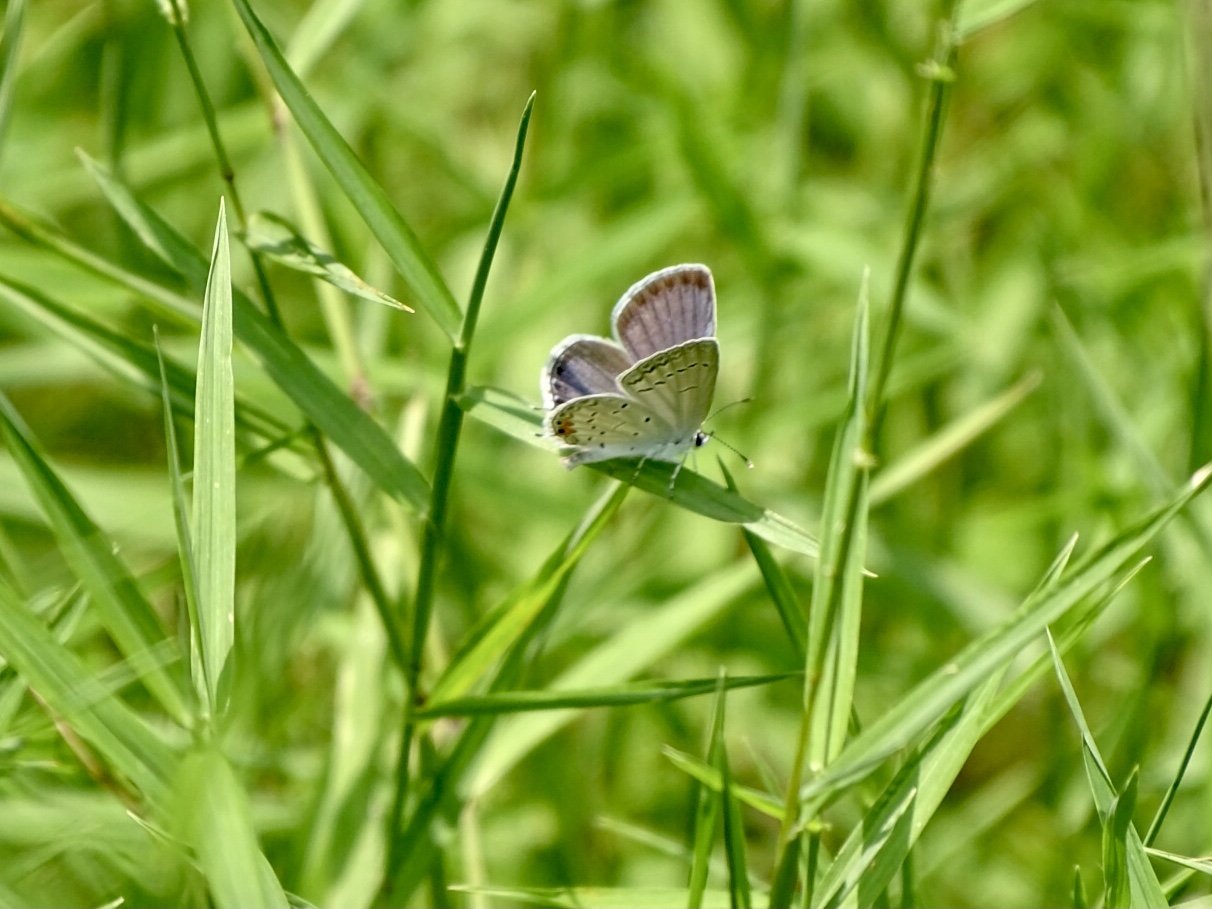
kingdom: Animalia
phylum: Arthropoda
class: Insecta
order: Lepidoptera
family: Lycaenidae
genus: Elkalyce
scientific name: Elkalyce comyntas
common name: Eastern Tailed-Blue
